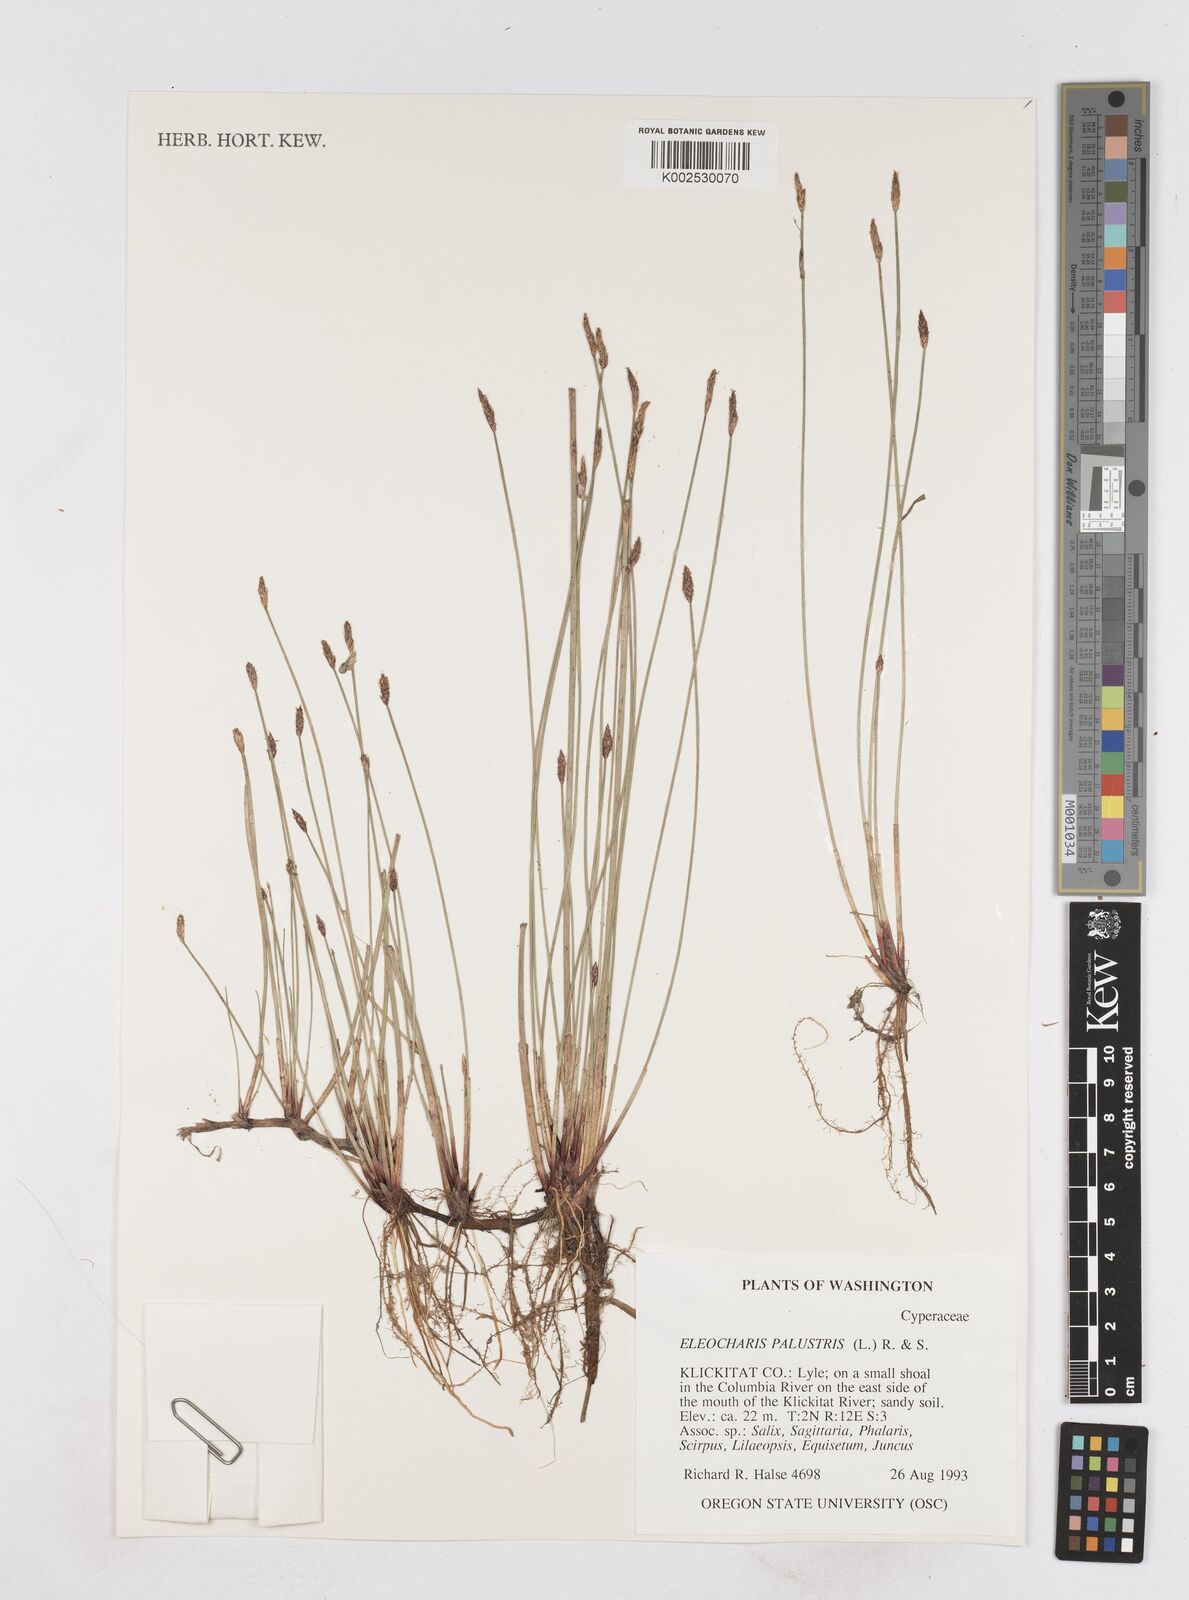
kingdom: Plantae
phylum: Tracheophyta
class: Liliopsida
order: Poales
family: Cyperaceae
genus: Eleocharis
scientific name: Eleocharis palustris
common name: Common spike-rush
